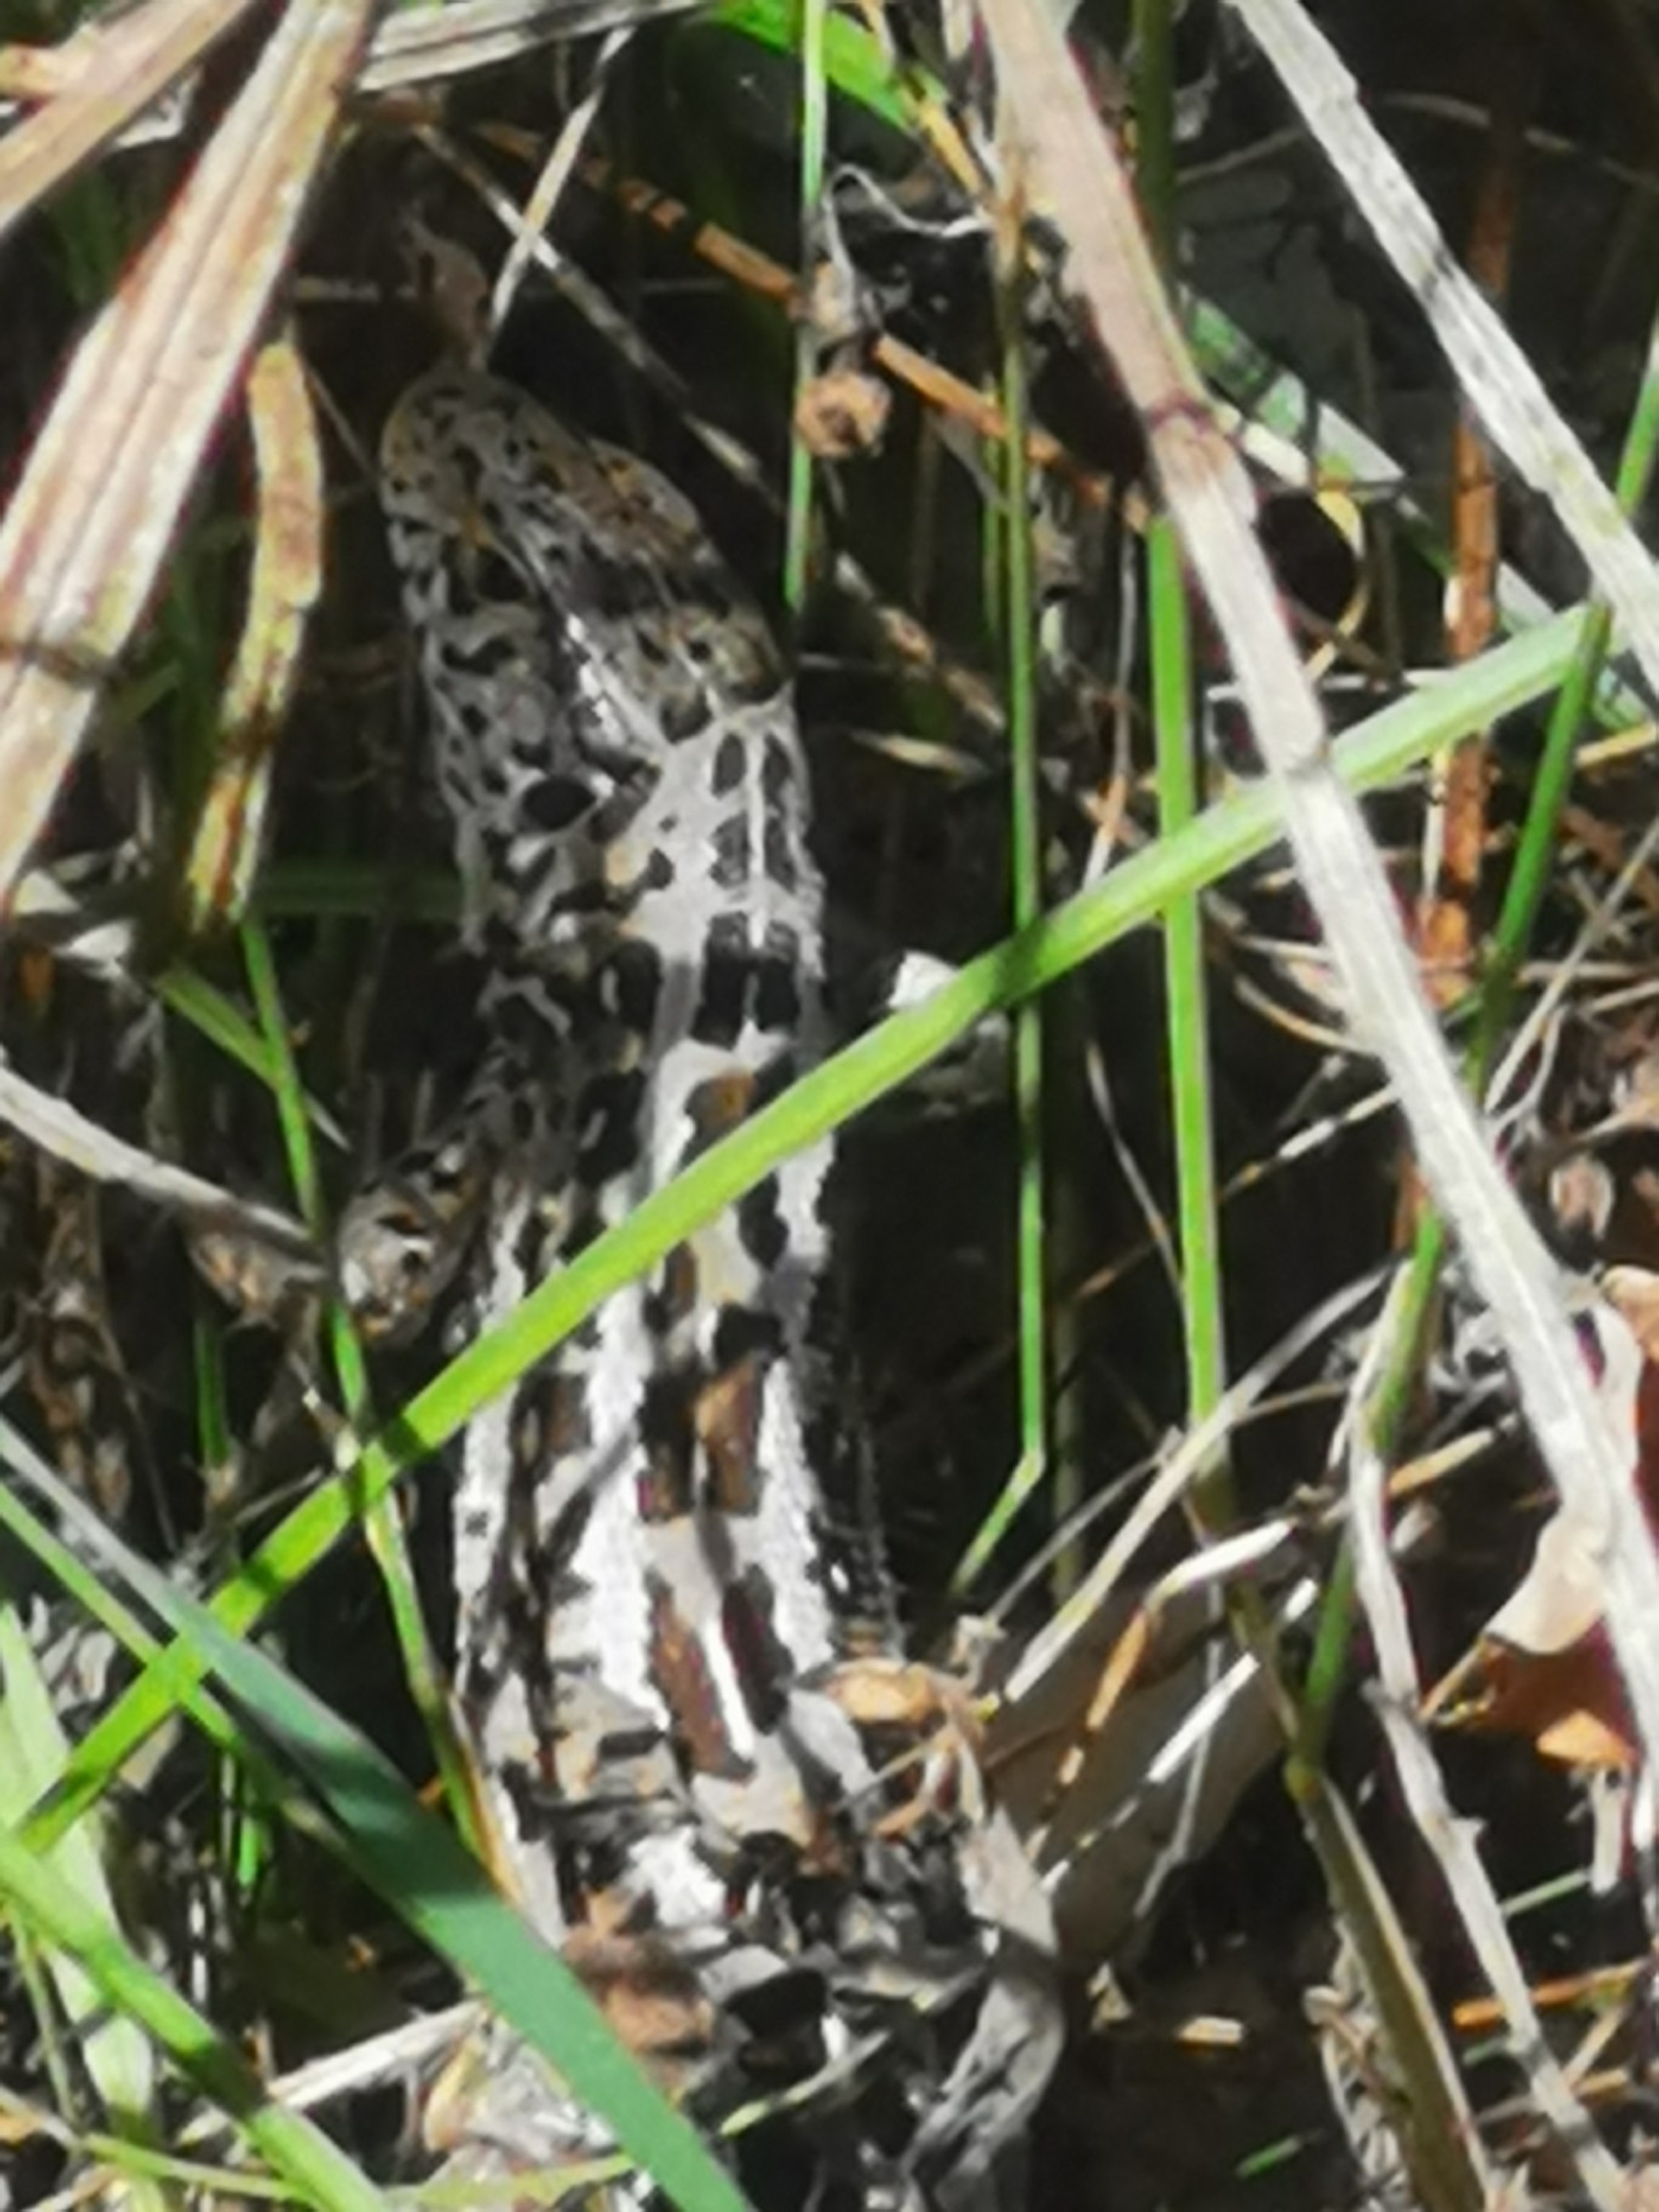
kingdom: Animalia
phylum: Chordata
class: Squamata
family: Lacertidae
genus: Lacerta
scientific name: Lacerta agilis
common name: Markfirben
